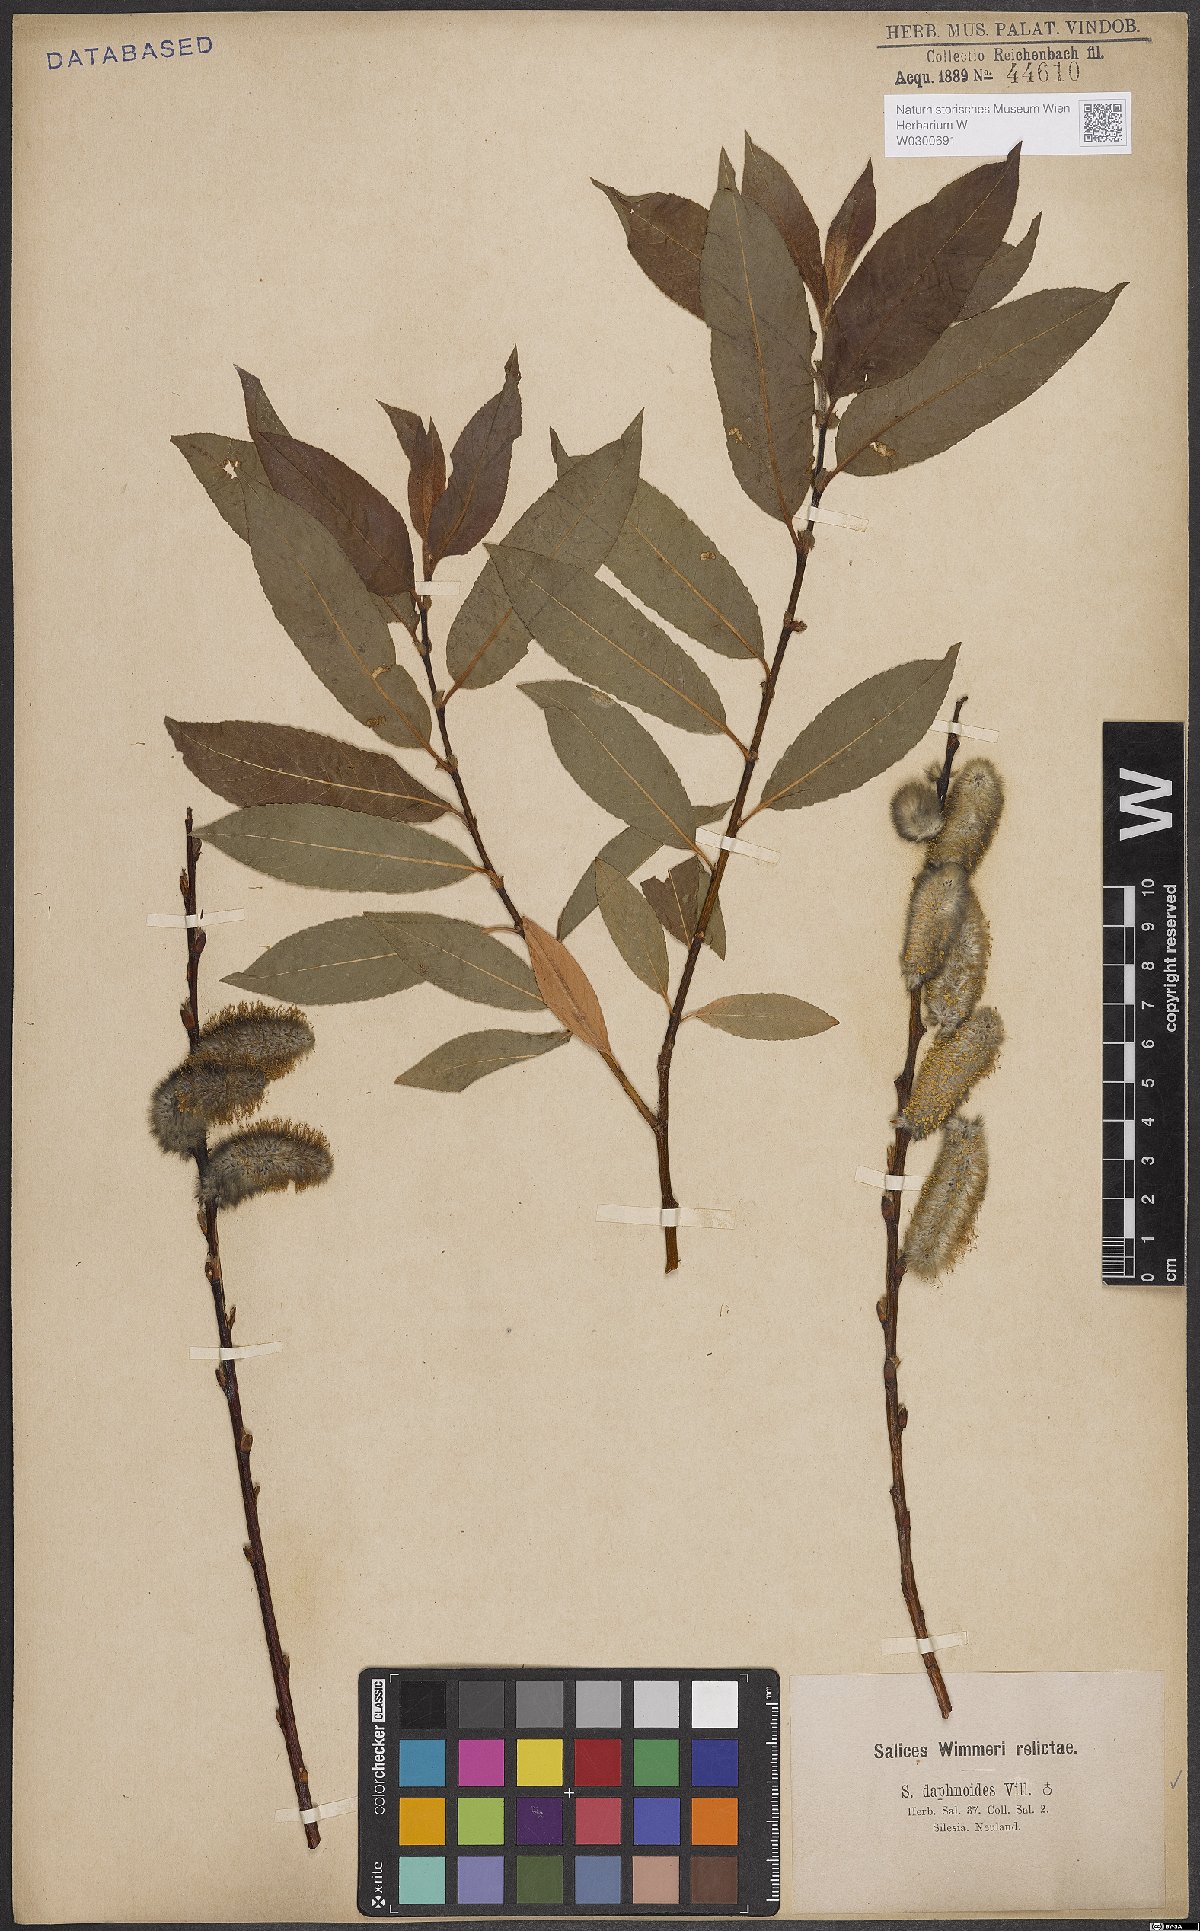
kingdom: Plantae
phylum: Tracheophyta
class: Magnoliopsida
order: Malpighiales
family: Salicaceae
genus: Salix
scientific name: Salix daphnoides
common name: European violet-willow
